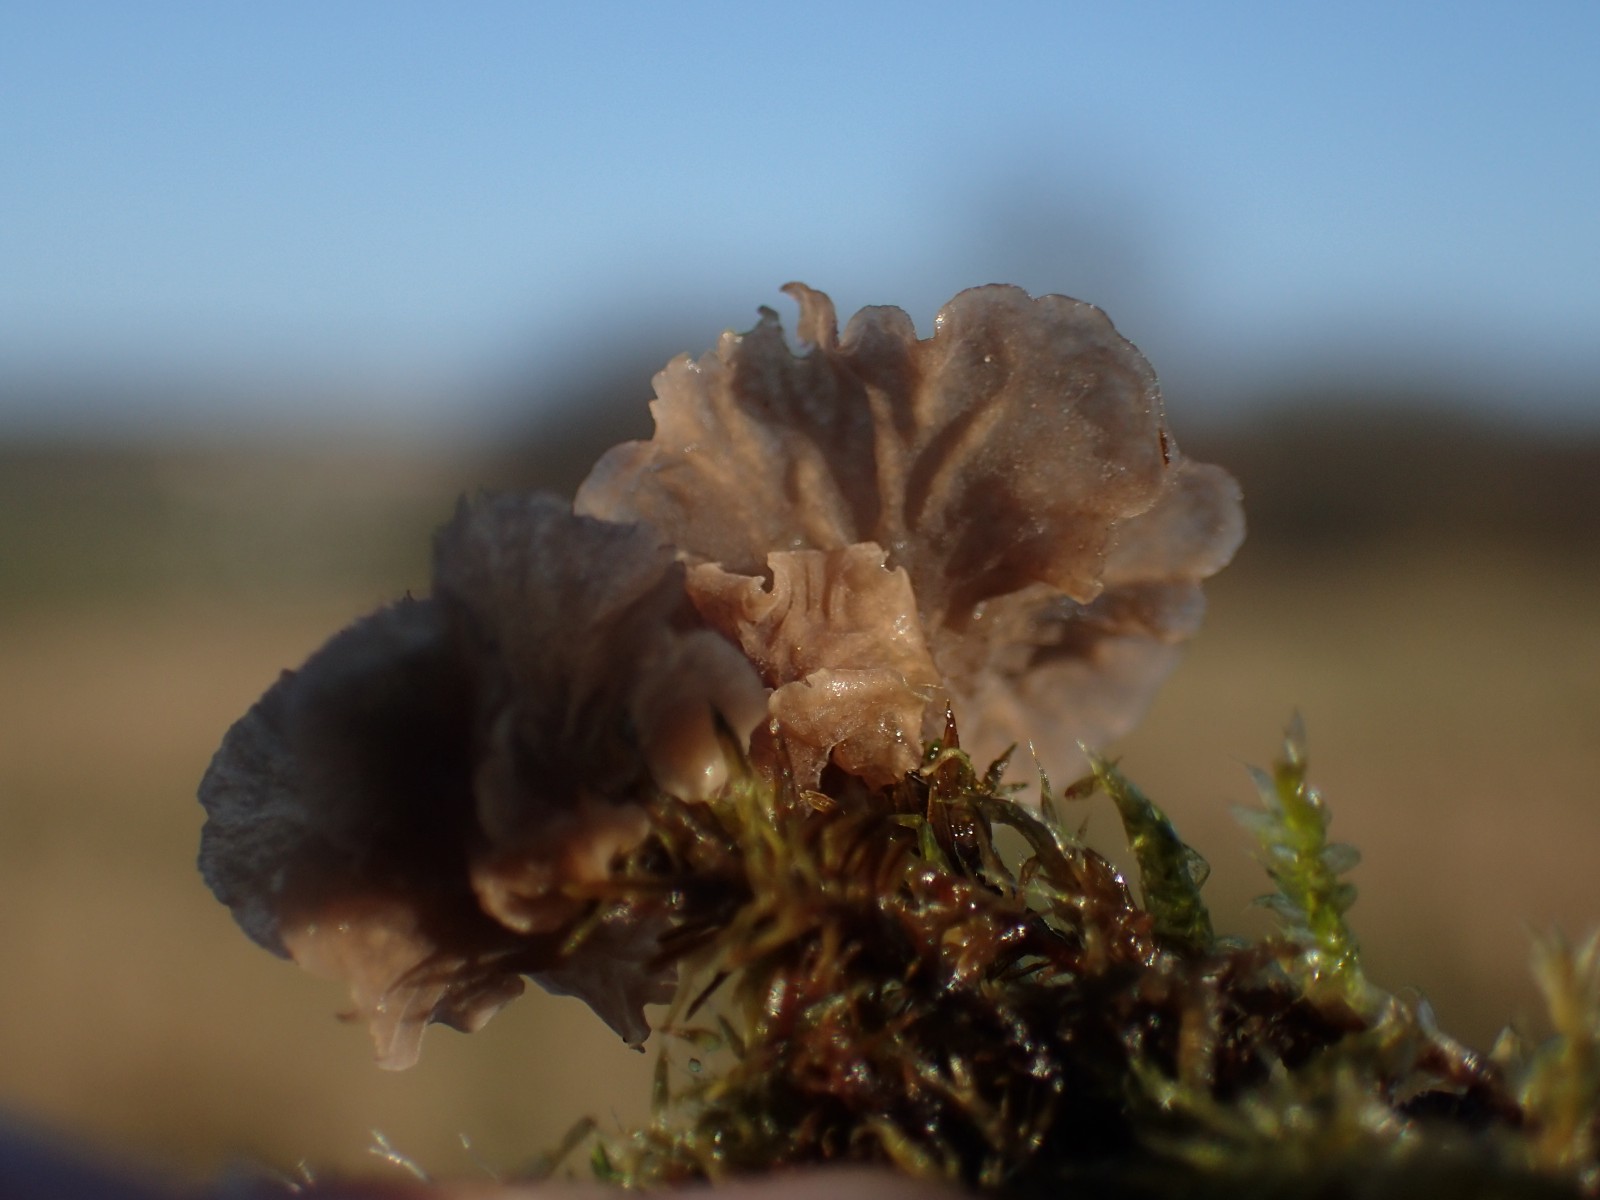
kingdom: Fungi
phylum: Basidiomycota
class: Agaricomycetes
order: Agaricales
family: Hygrophoraceae
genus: Arrhenia
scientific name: Arrhenia spathulata
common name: skæv fontænehat
